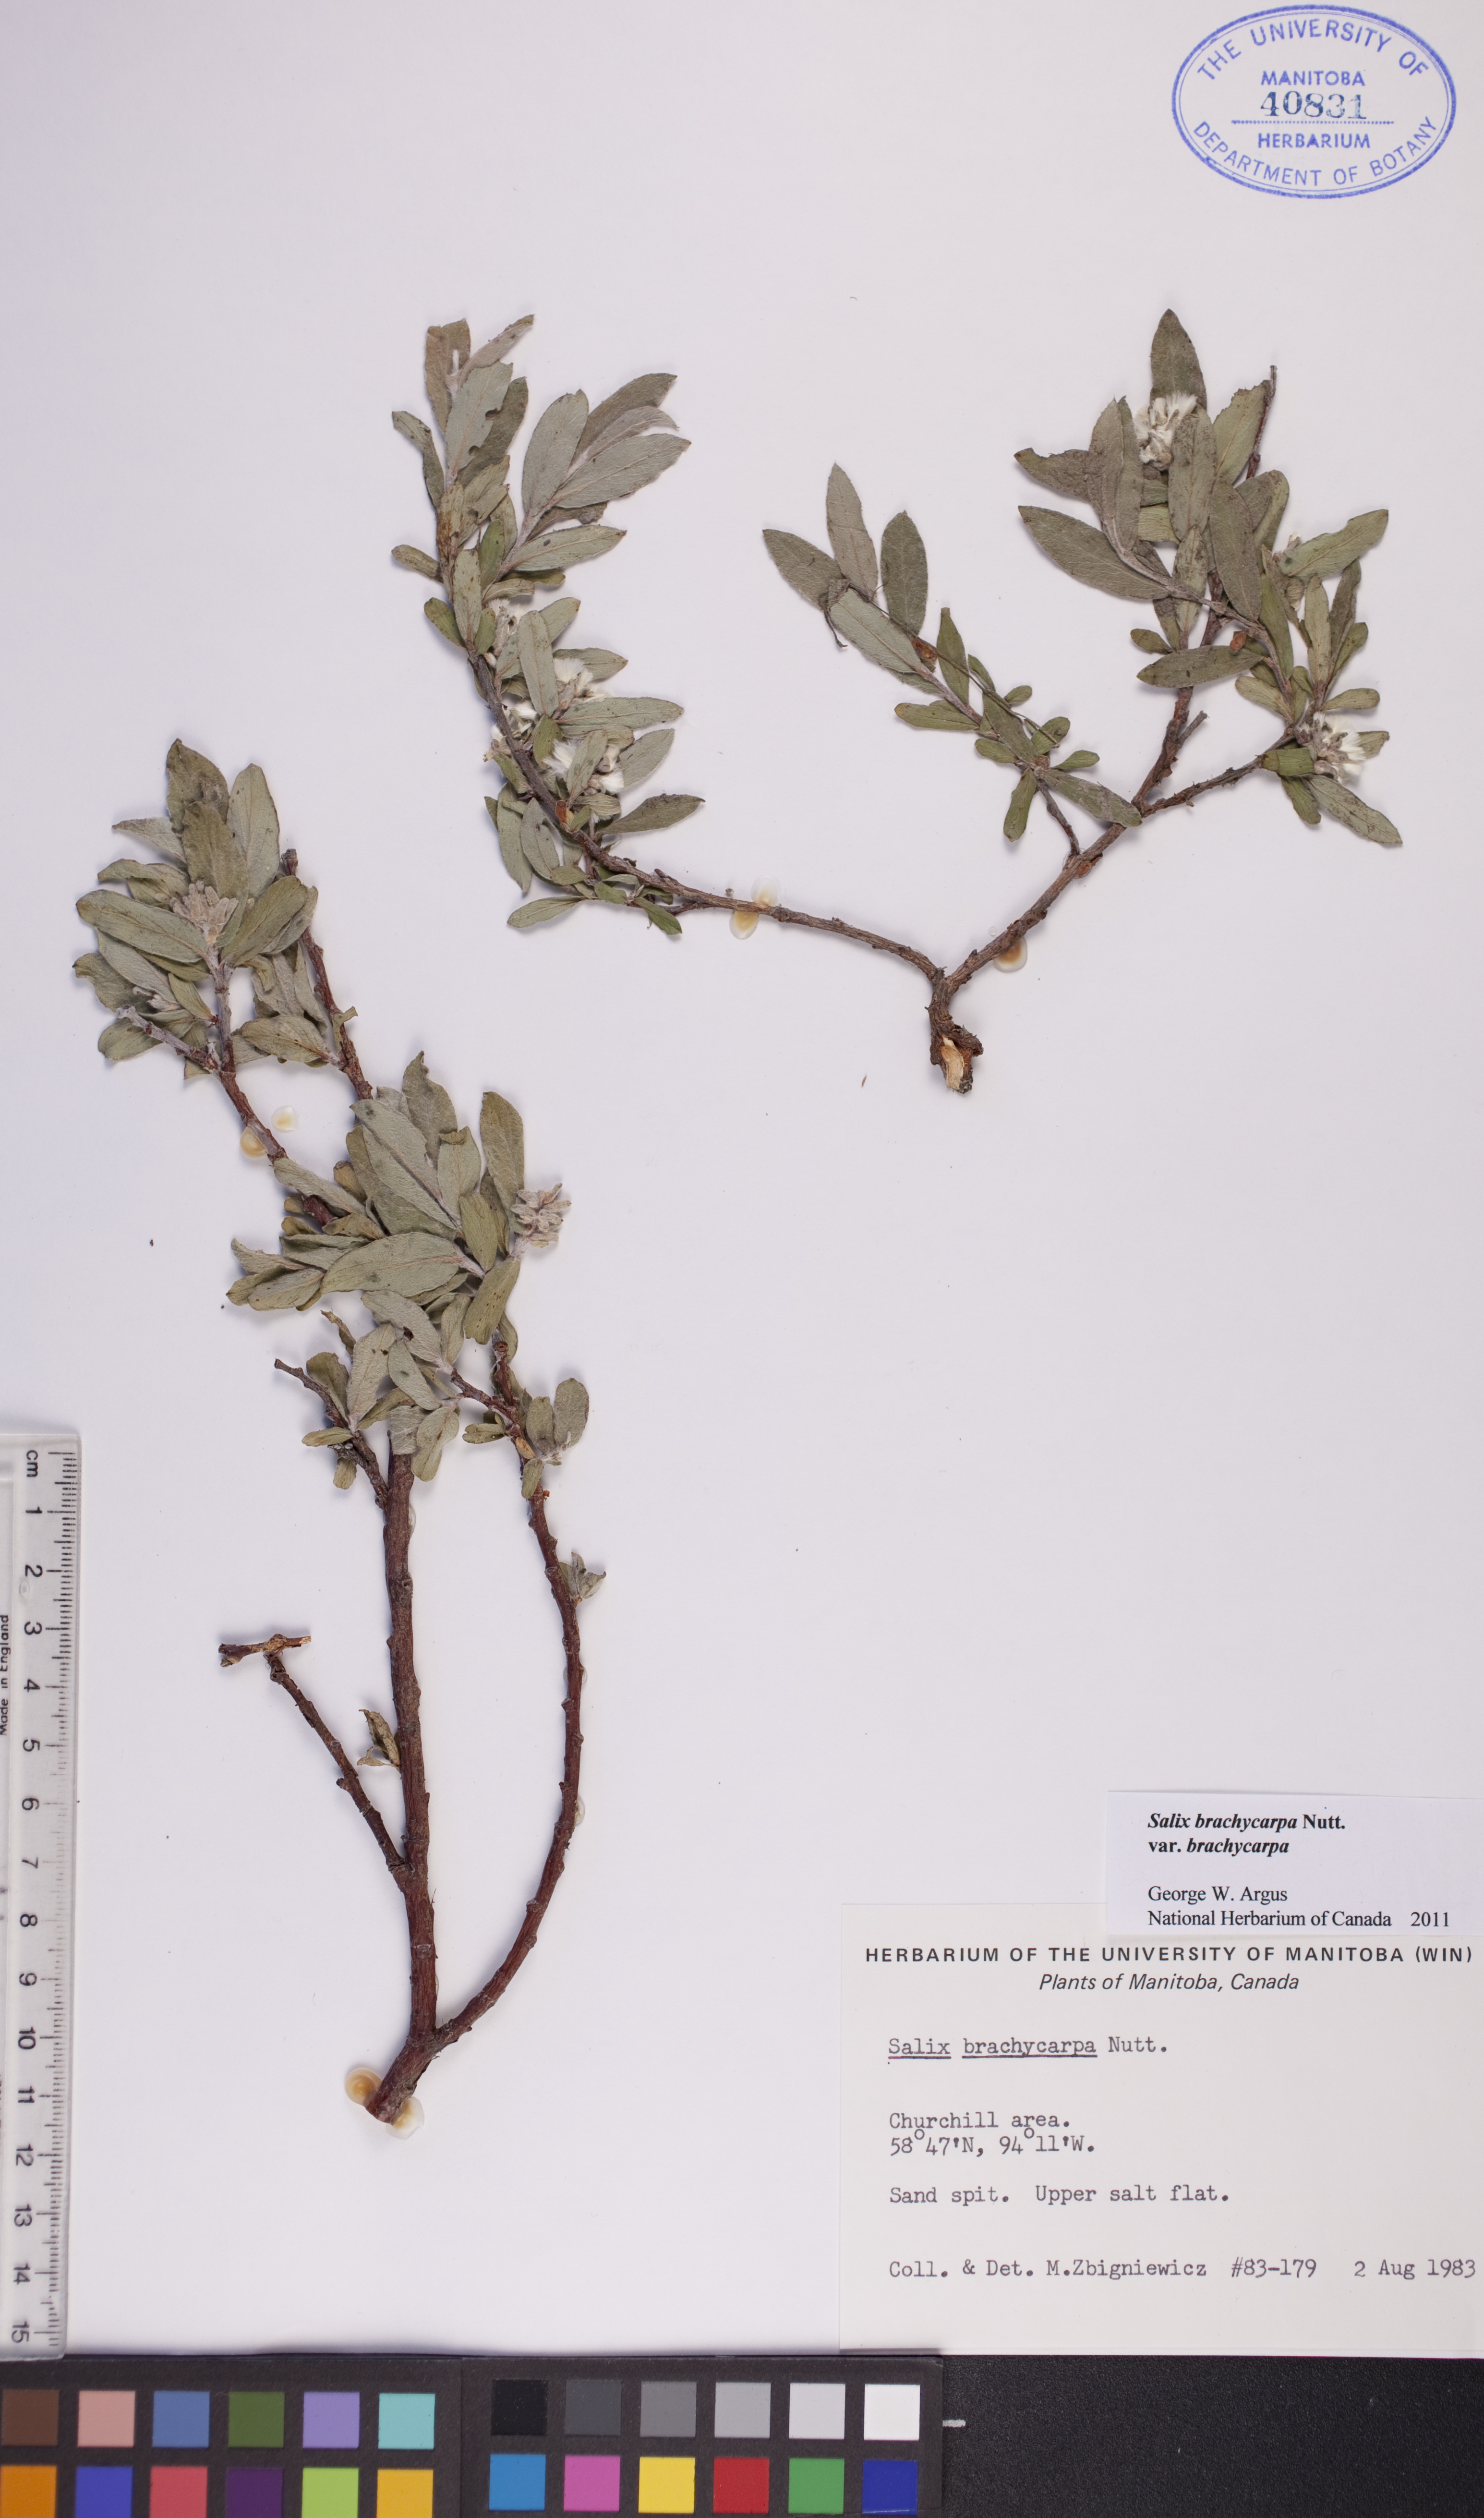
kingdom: Plantae
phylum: Tracheophyta
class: Magnoliopsida
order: Malpighiales
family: Salicaceae
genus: Salix
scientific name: Salix brachycarpa
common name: Barren-ground willow
